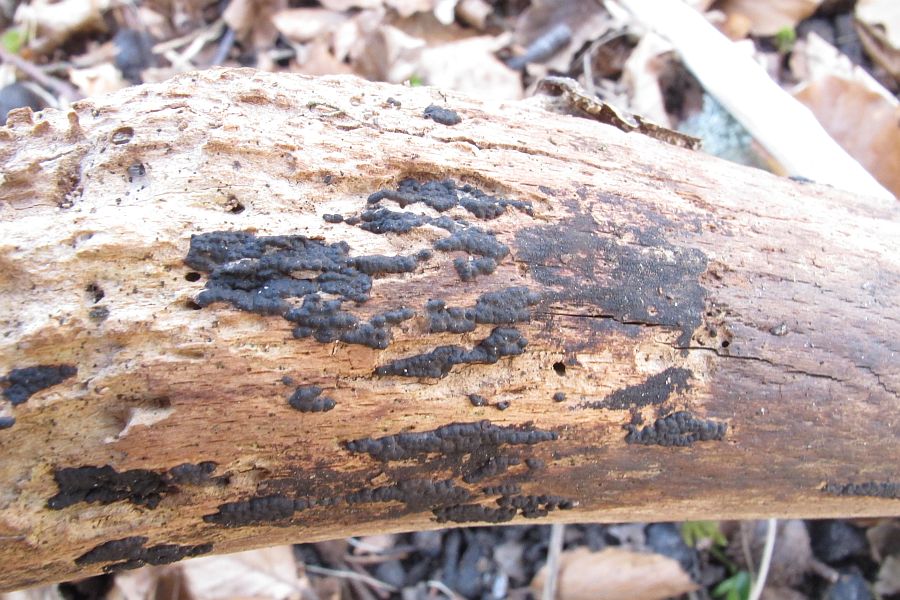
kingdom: Fungi
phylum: Ascomycota
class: Sordariomycetes
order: Xylariales
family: Xylariaceae
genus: Nemania
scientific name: Nemania serpens
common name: almindelig kuldyne
